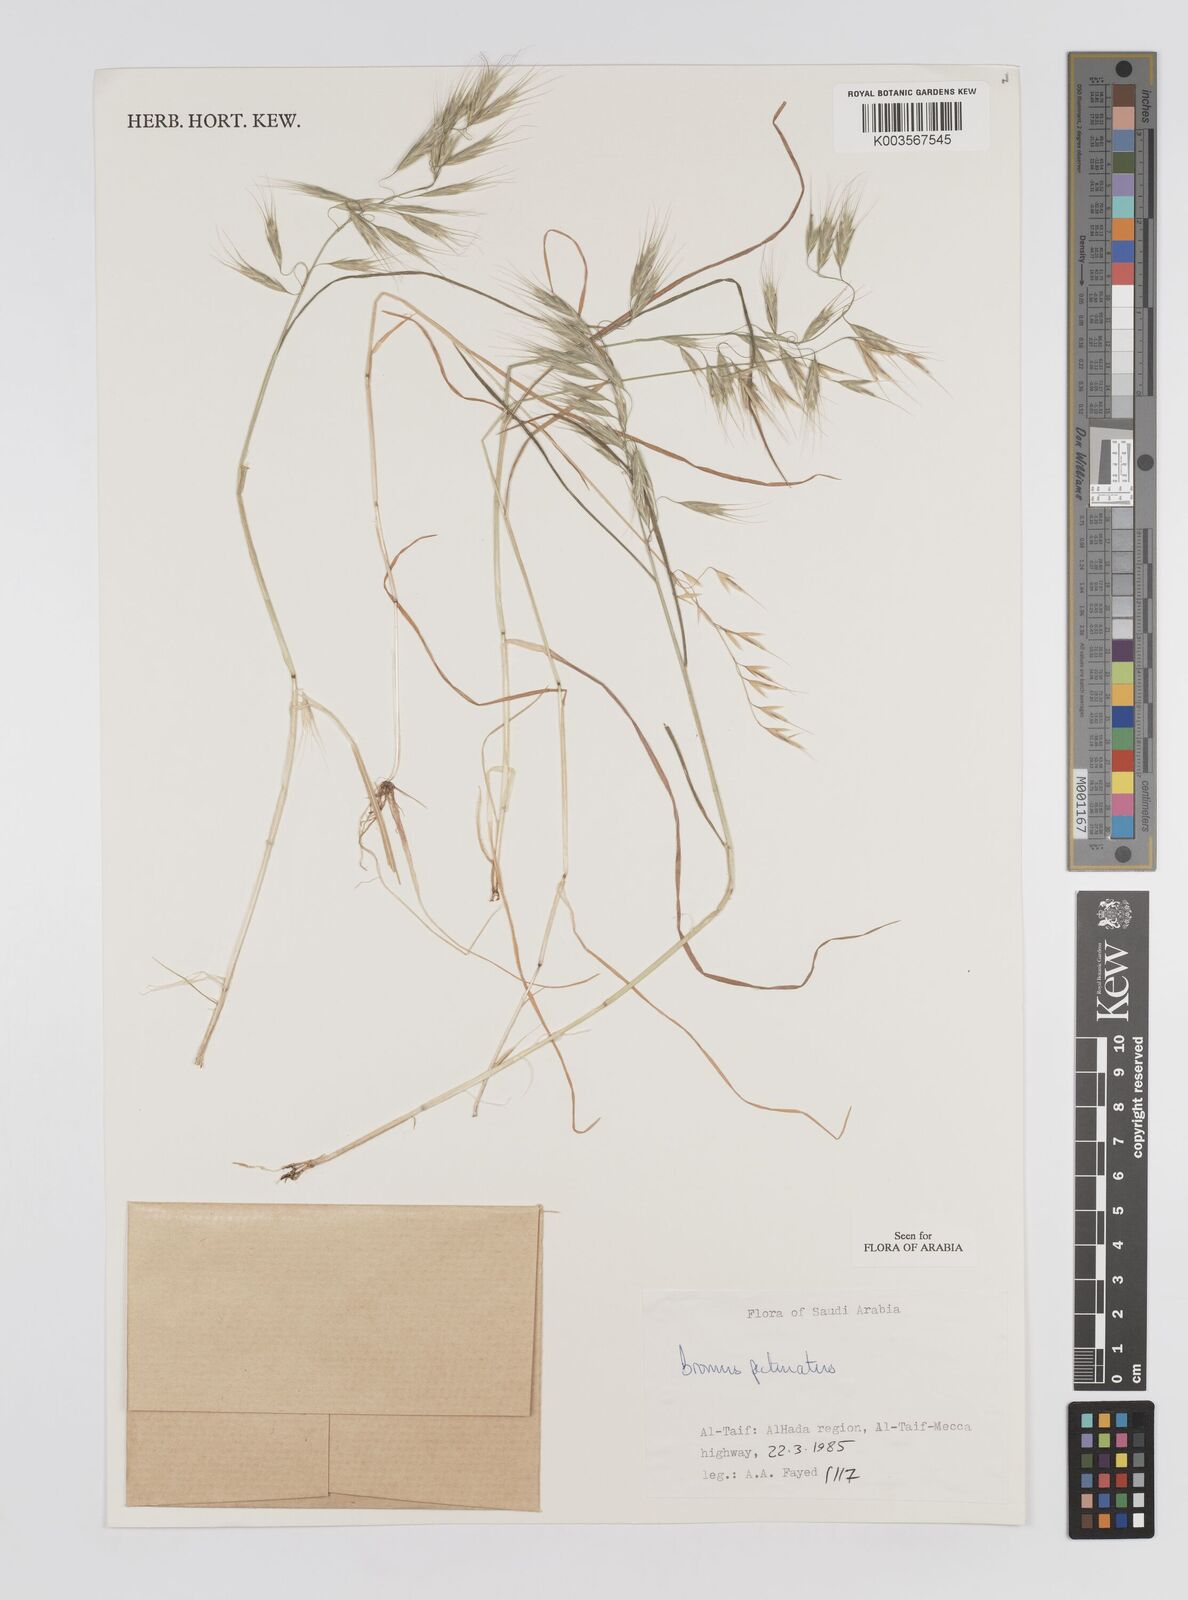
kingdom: Plantae
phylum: Tracheophyta
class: Liliopsida
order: Poales
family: Poaceae
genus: Bromus
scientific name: Bromus pectinatus
